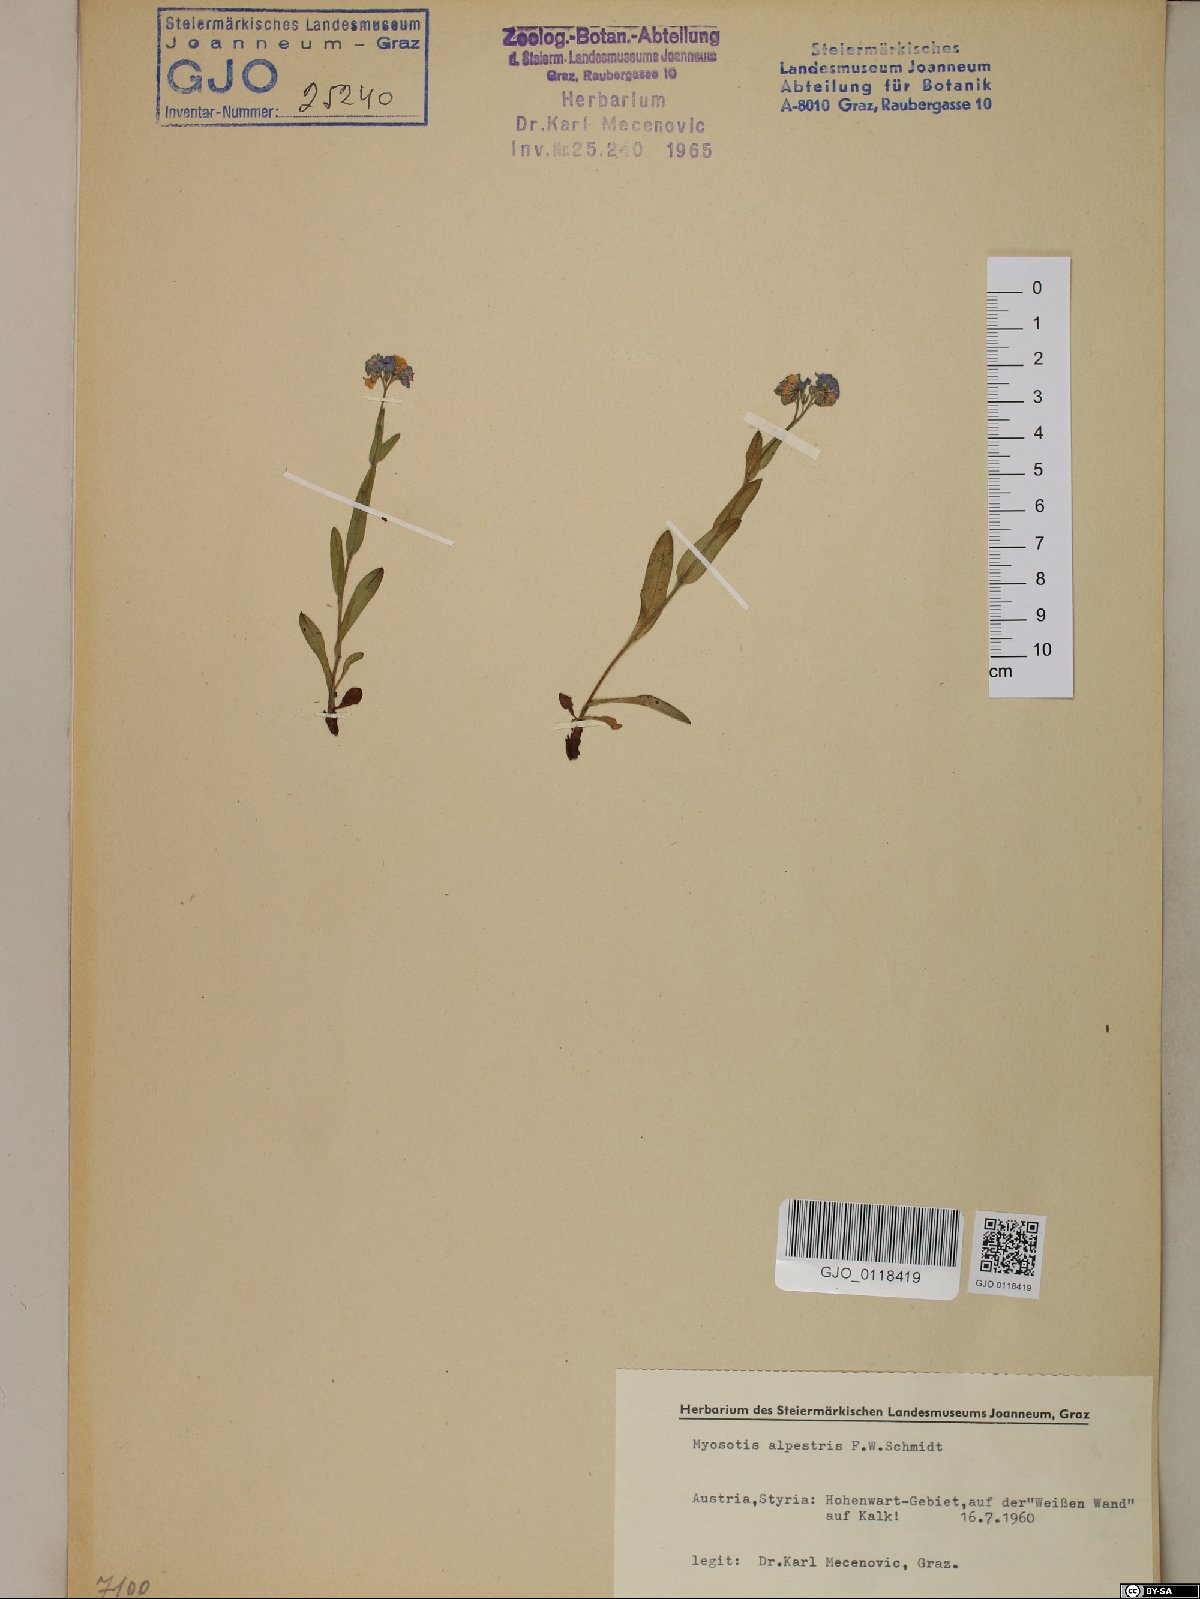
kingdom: Plantae
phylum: Tracheophyta
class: Magnoliopsida
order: Boraginales
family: Boraginaceae
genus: Myosotis
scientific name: Myosotis alpestris
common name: Alpine forget-me-not
